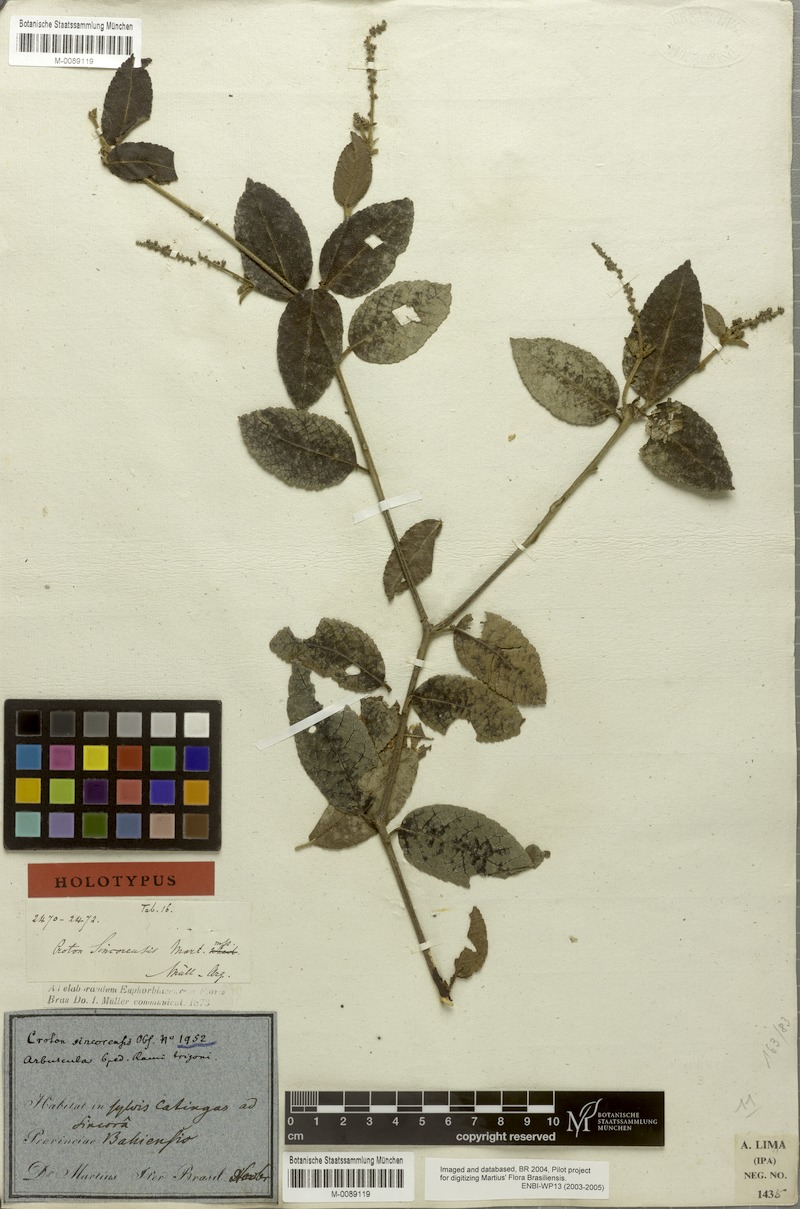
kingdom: Plantae
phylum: Tracheophyta
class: Magnoliopsida
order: Malpighiales
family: Euphorbiaceae
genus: Croton
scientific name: Croton sincorensis
